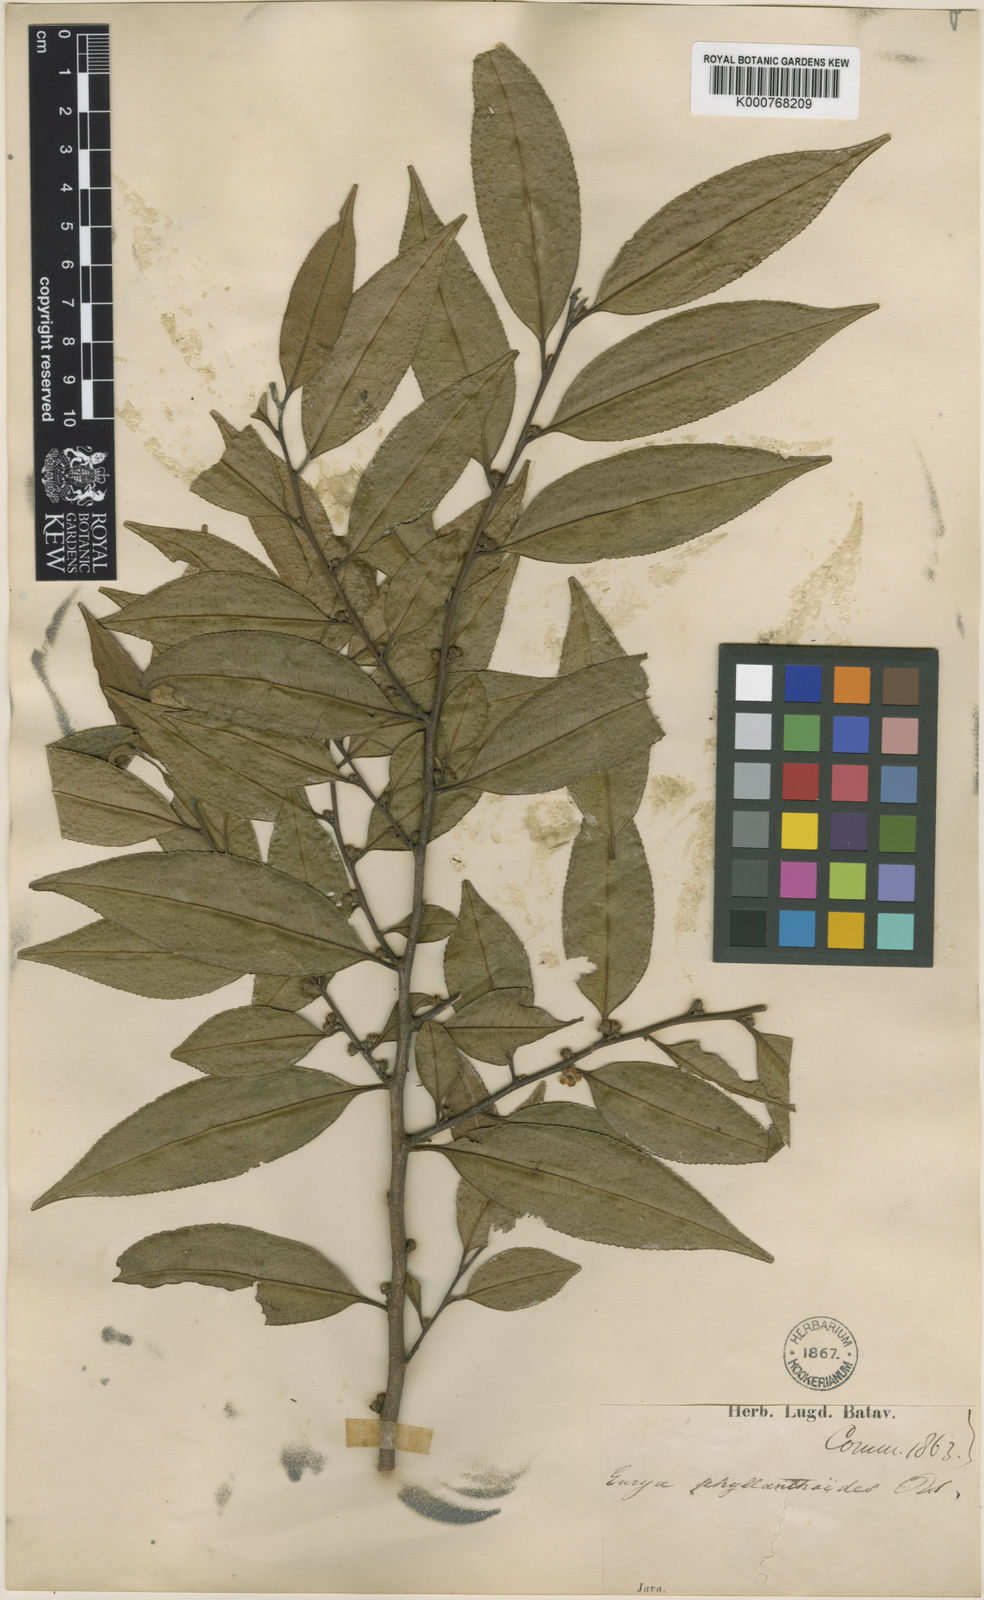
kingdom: Plantae
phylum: Tracheophyta
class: Magnoliopsida
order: Ericales
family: Pentaphylacaceae
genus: Eurya
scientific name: Eurya acuminata
